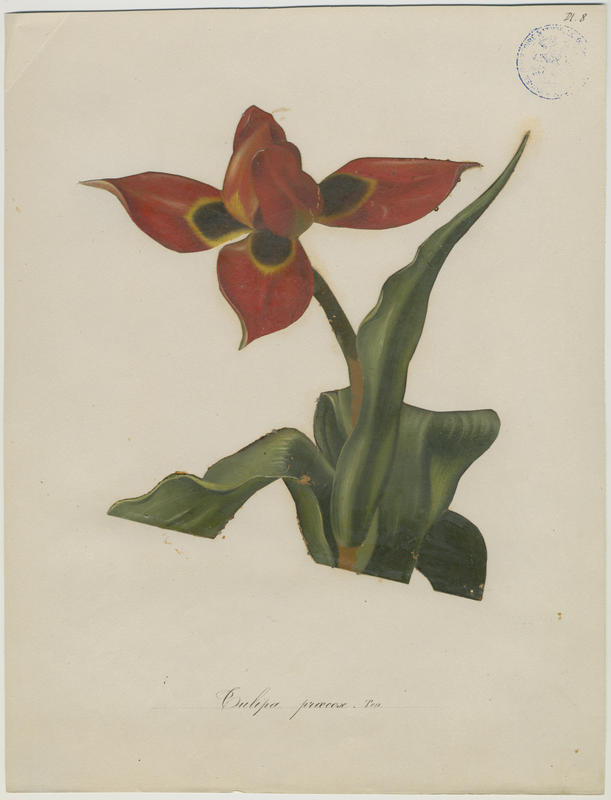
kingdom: Plantae
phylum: Tracheophyta
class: Liliopsida
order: Liliales
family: Liliaceae
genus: Tulipa
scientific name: Tulipa agenensis
